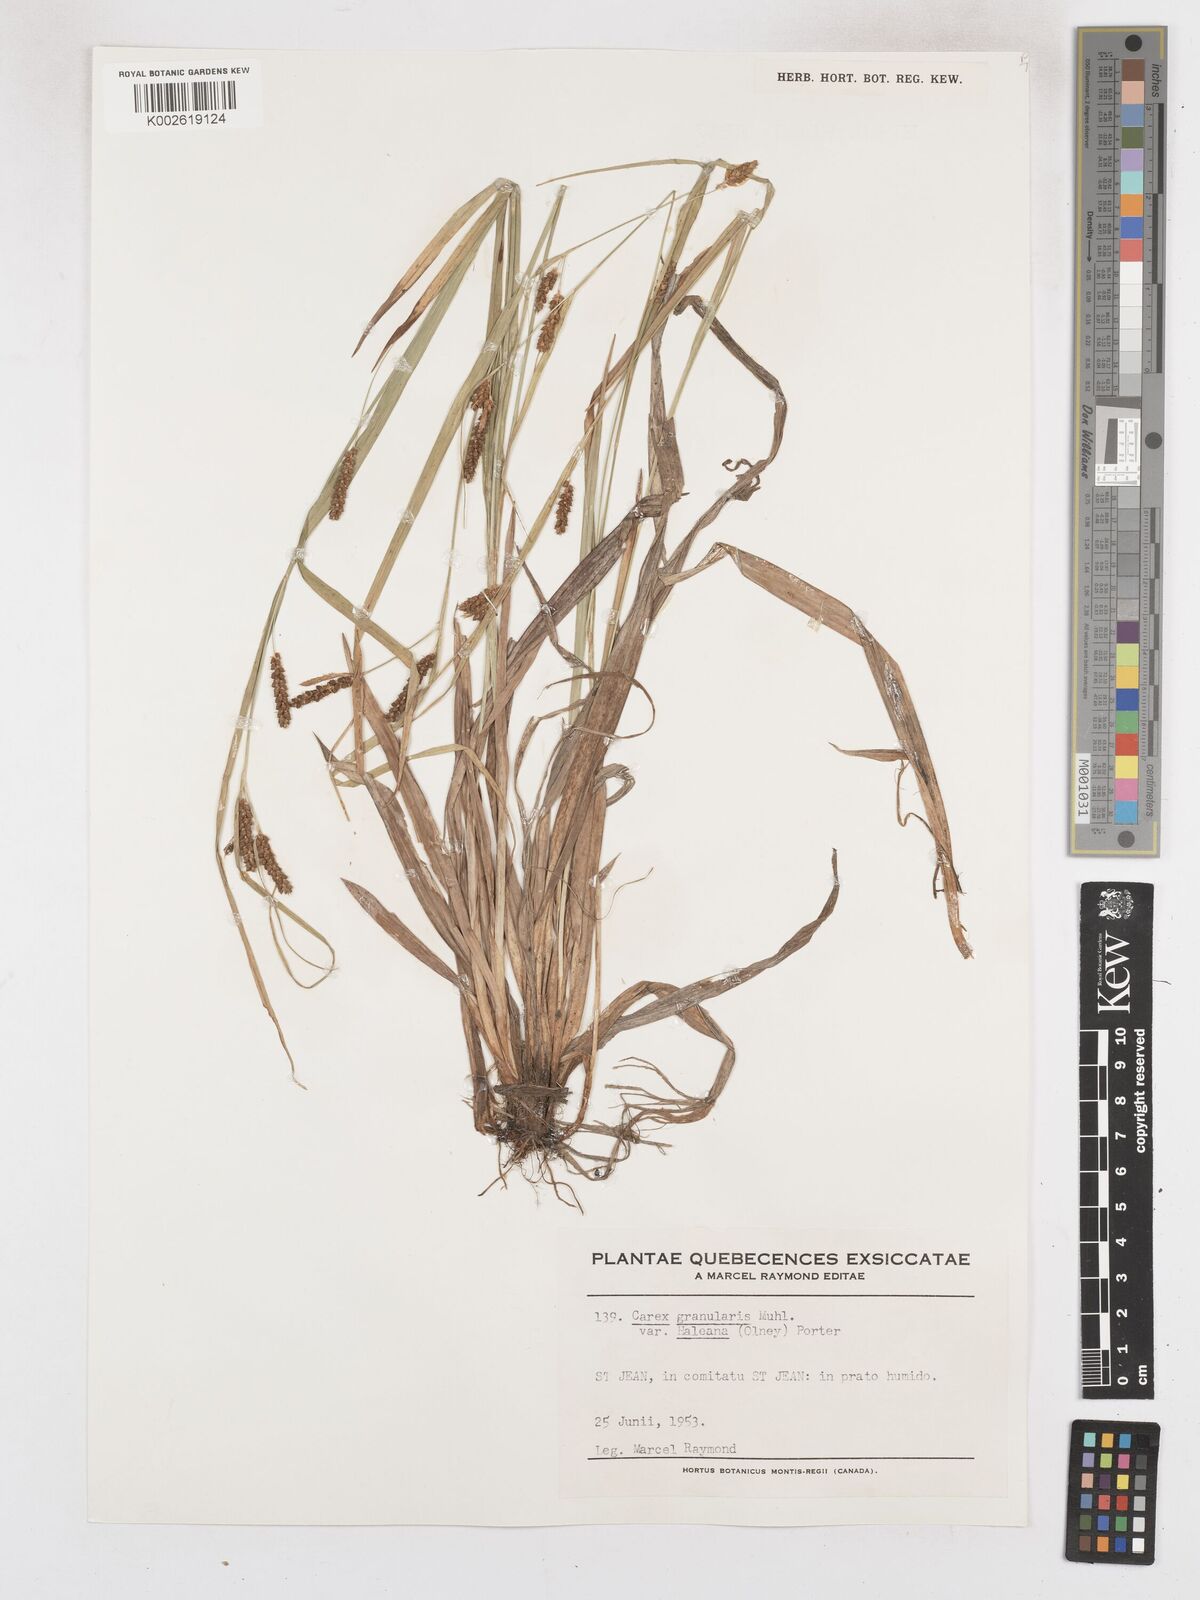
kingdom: Plantae
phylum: Tracheophyta
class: Liliopsida
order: Poales
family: Cyperaceae
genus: Carex
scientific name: Carex granularis
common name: Granular sedge
